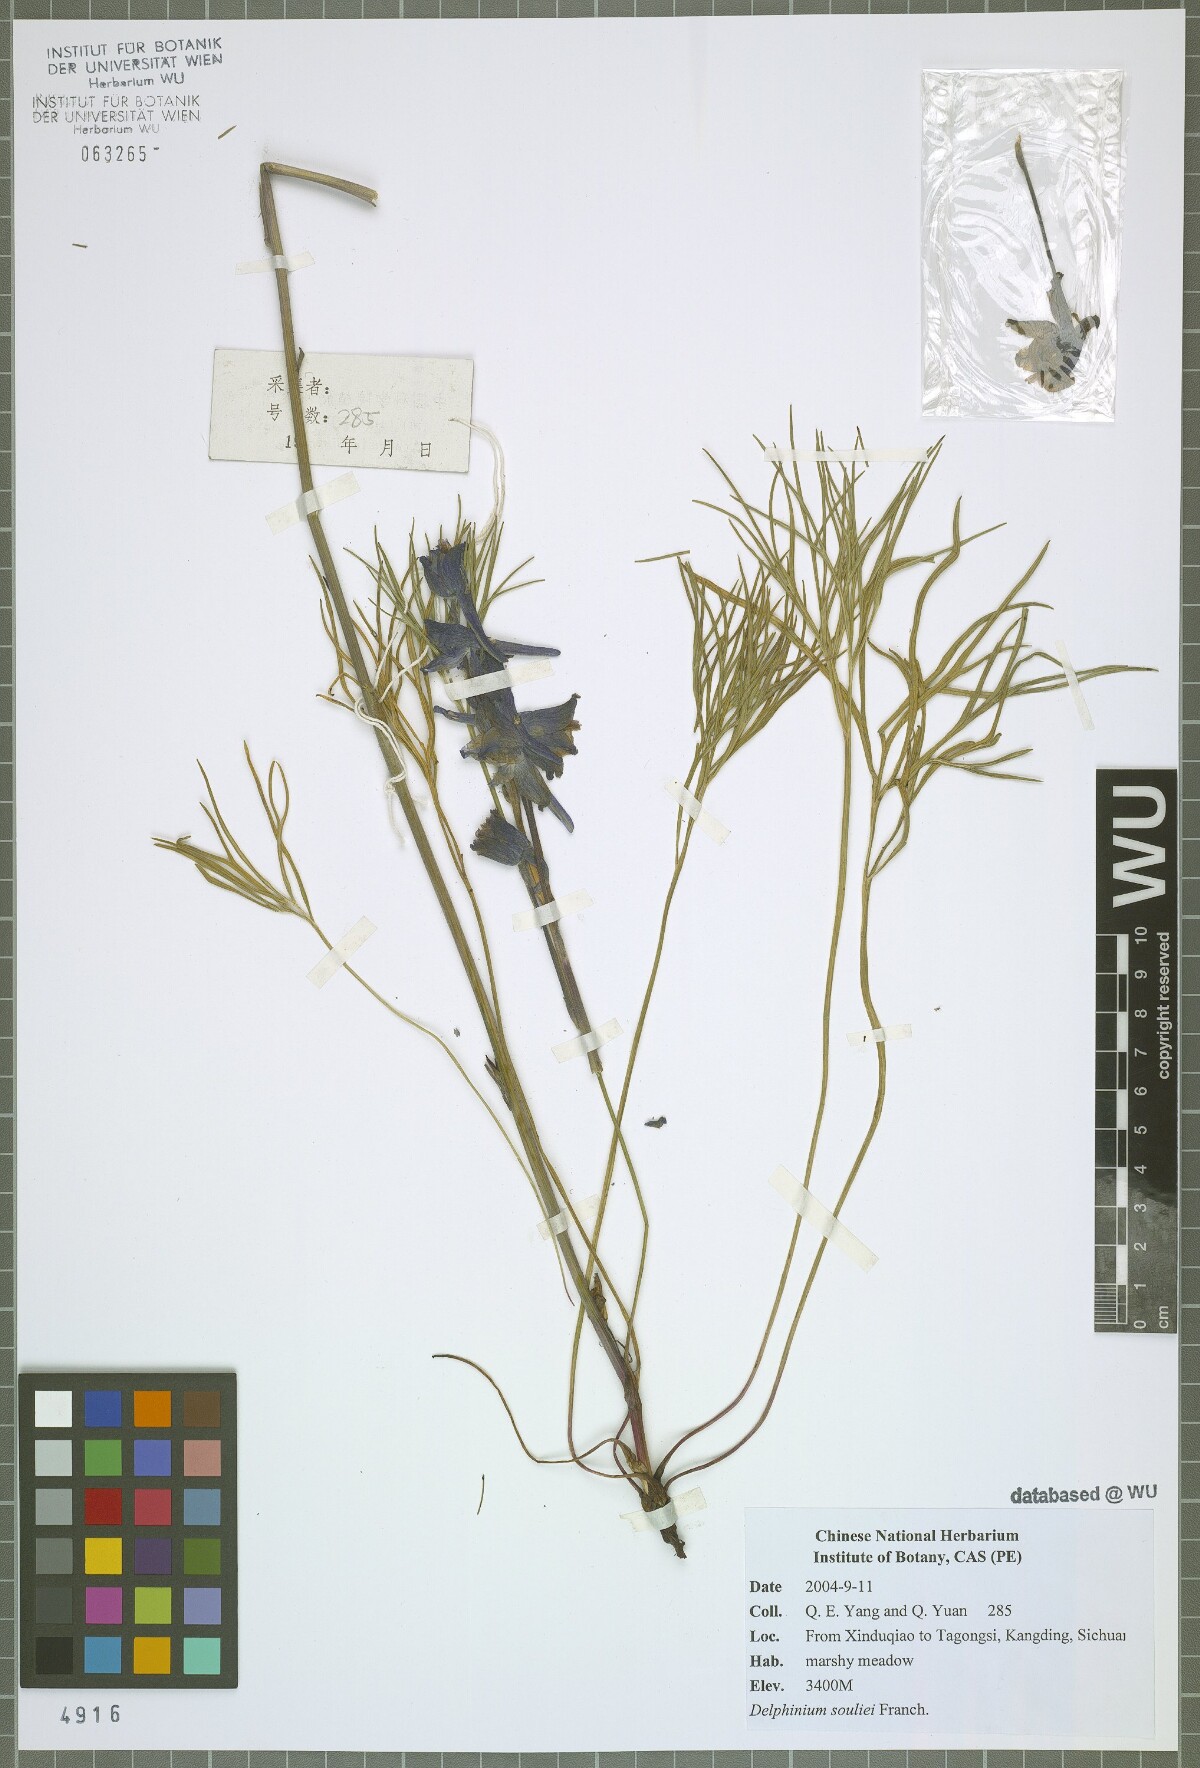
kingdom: Plantae
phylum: Tracheophyta
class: Magnoliopsida
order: Ranunculales
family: Ranunculaceae
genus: Delphinium
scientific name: Delphinium souliei
